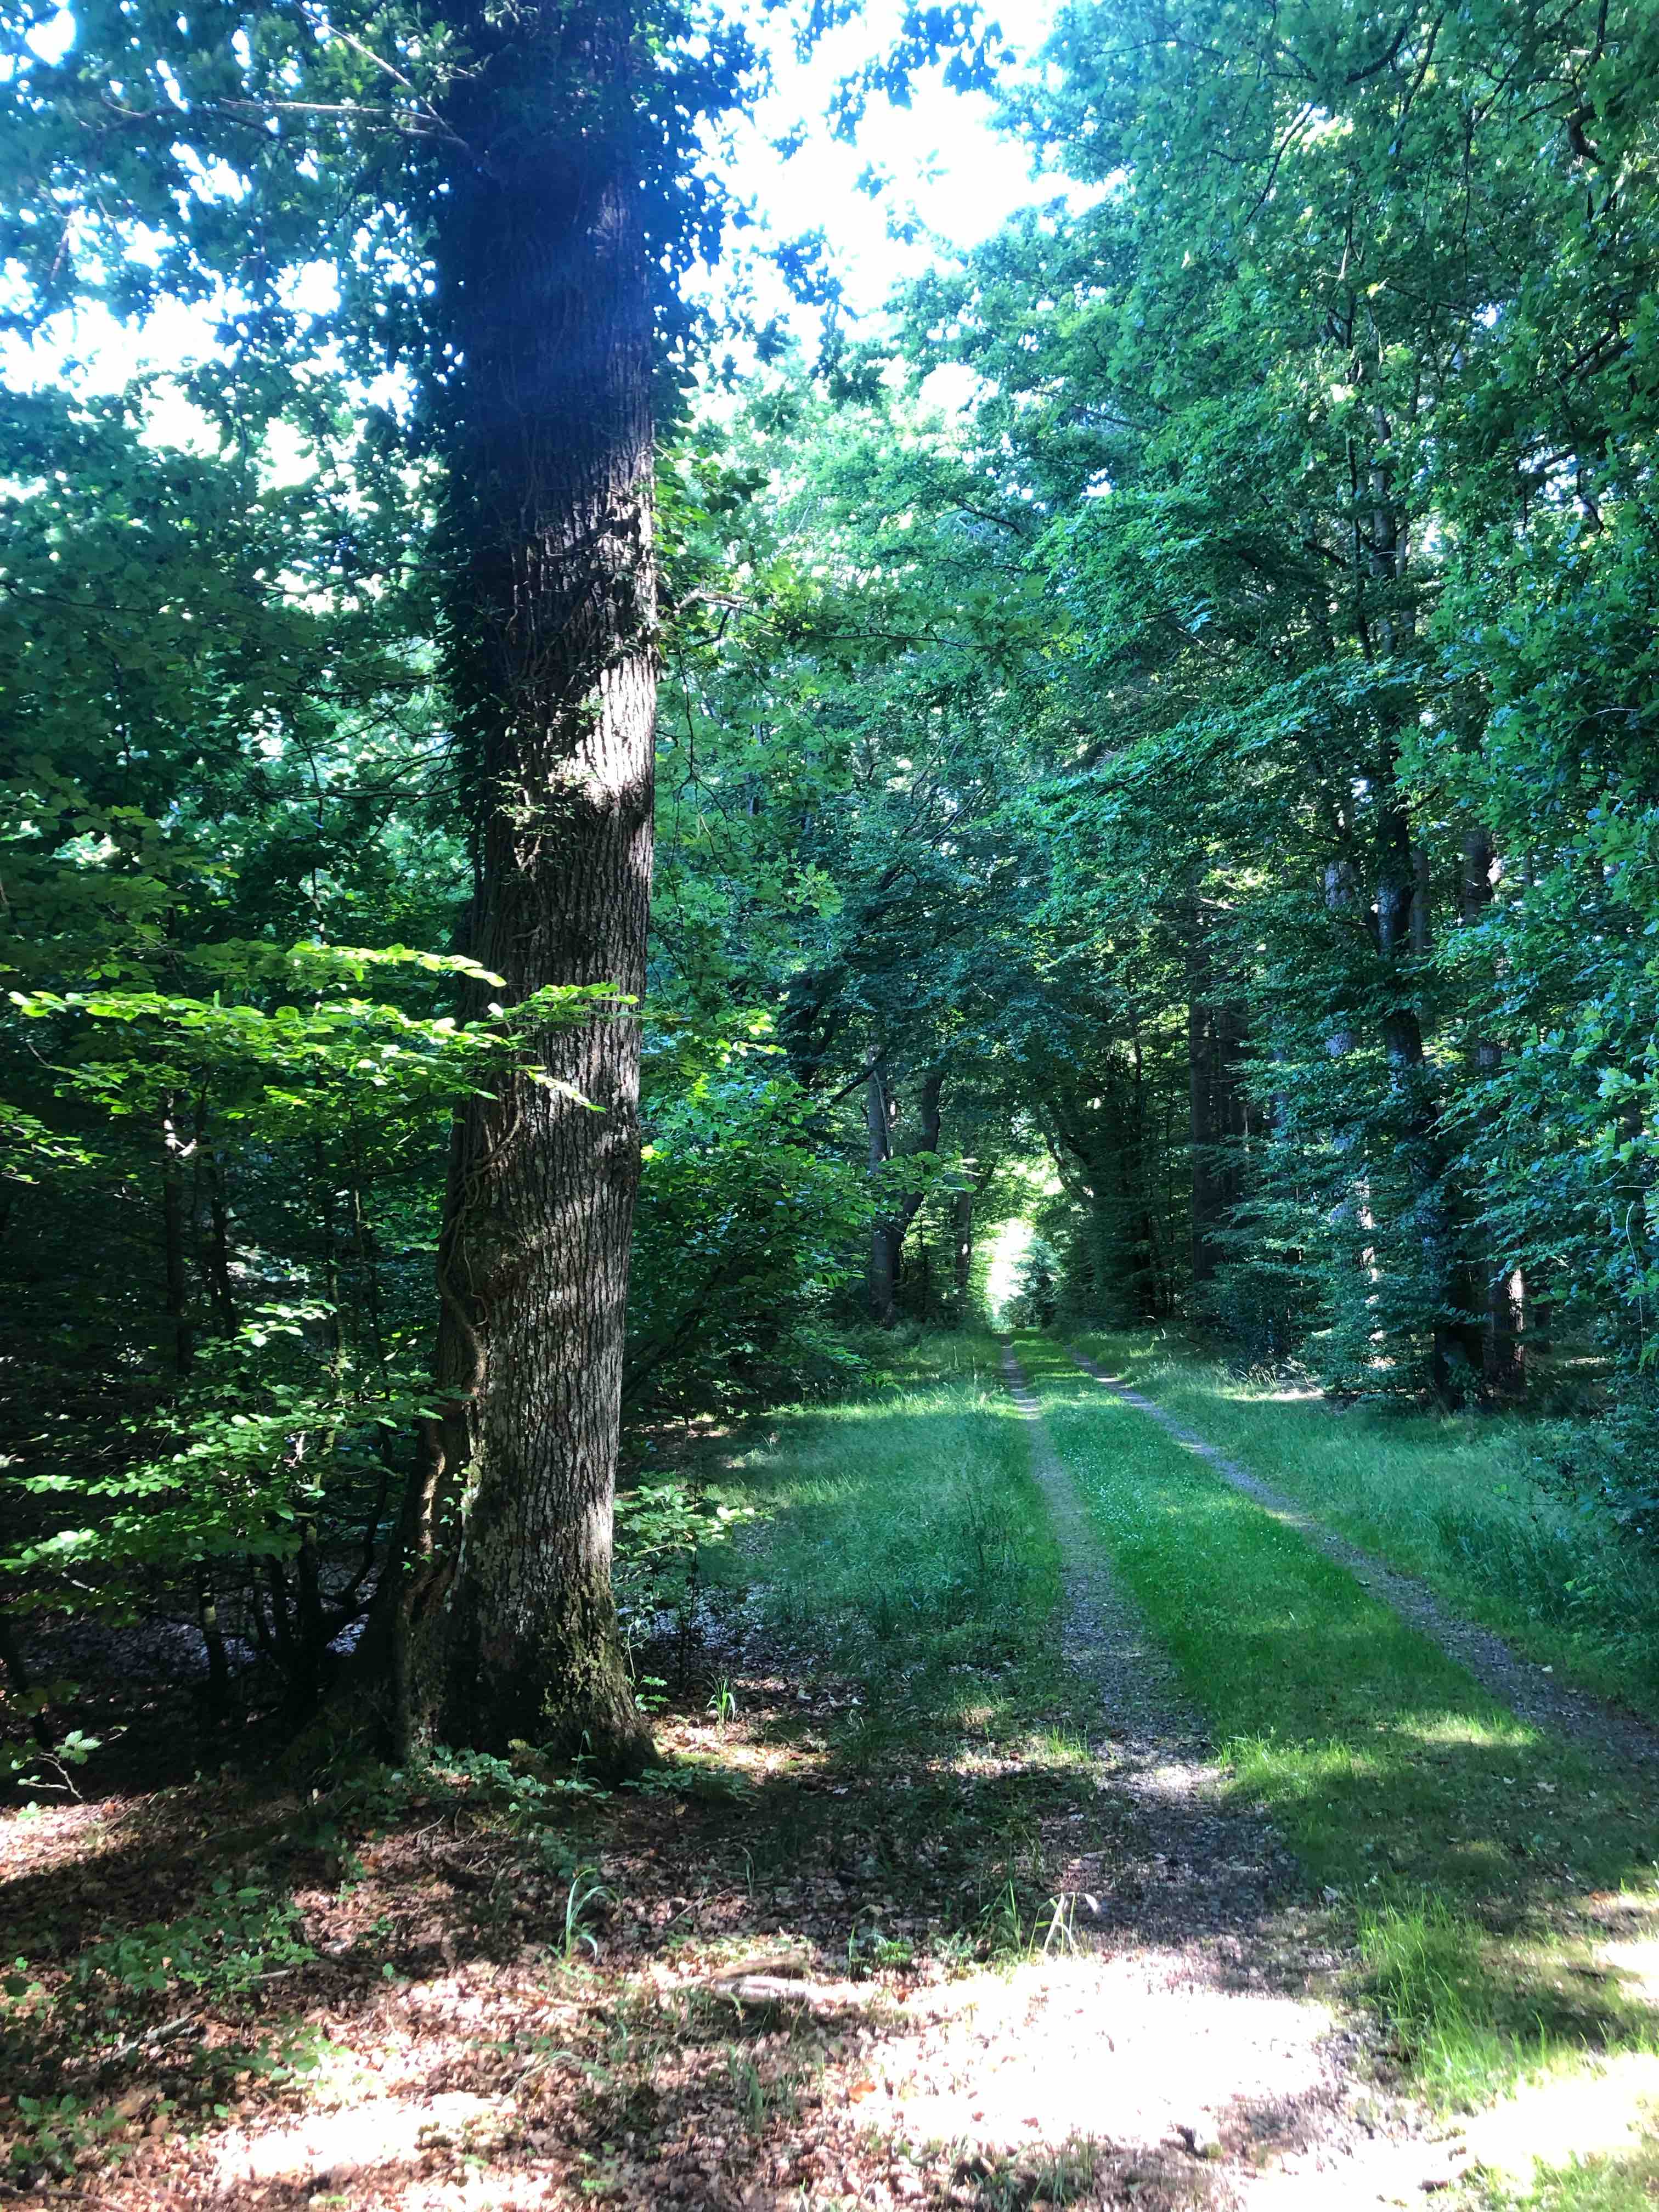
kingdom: Fungi
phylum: Basidiomycota
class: Agaricomycetes
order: Russulales
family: Russulaceae
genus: Russula
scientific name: Russula
